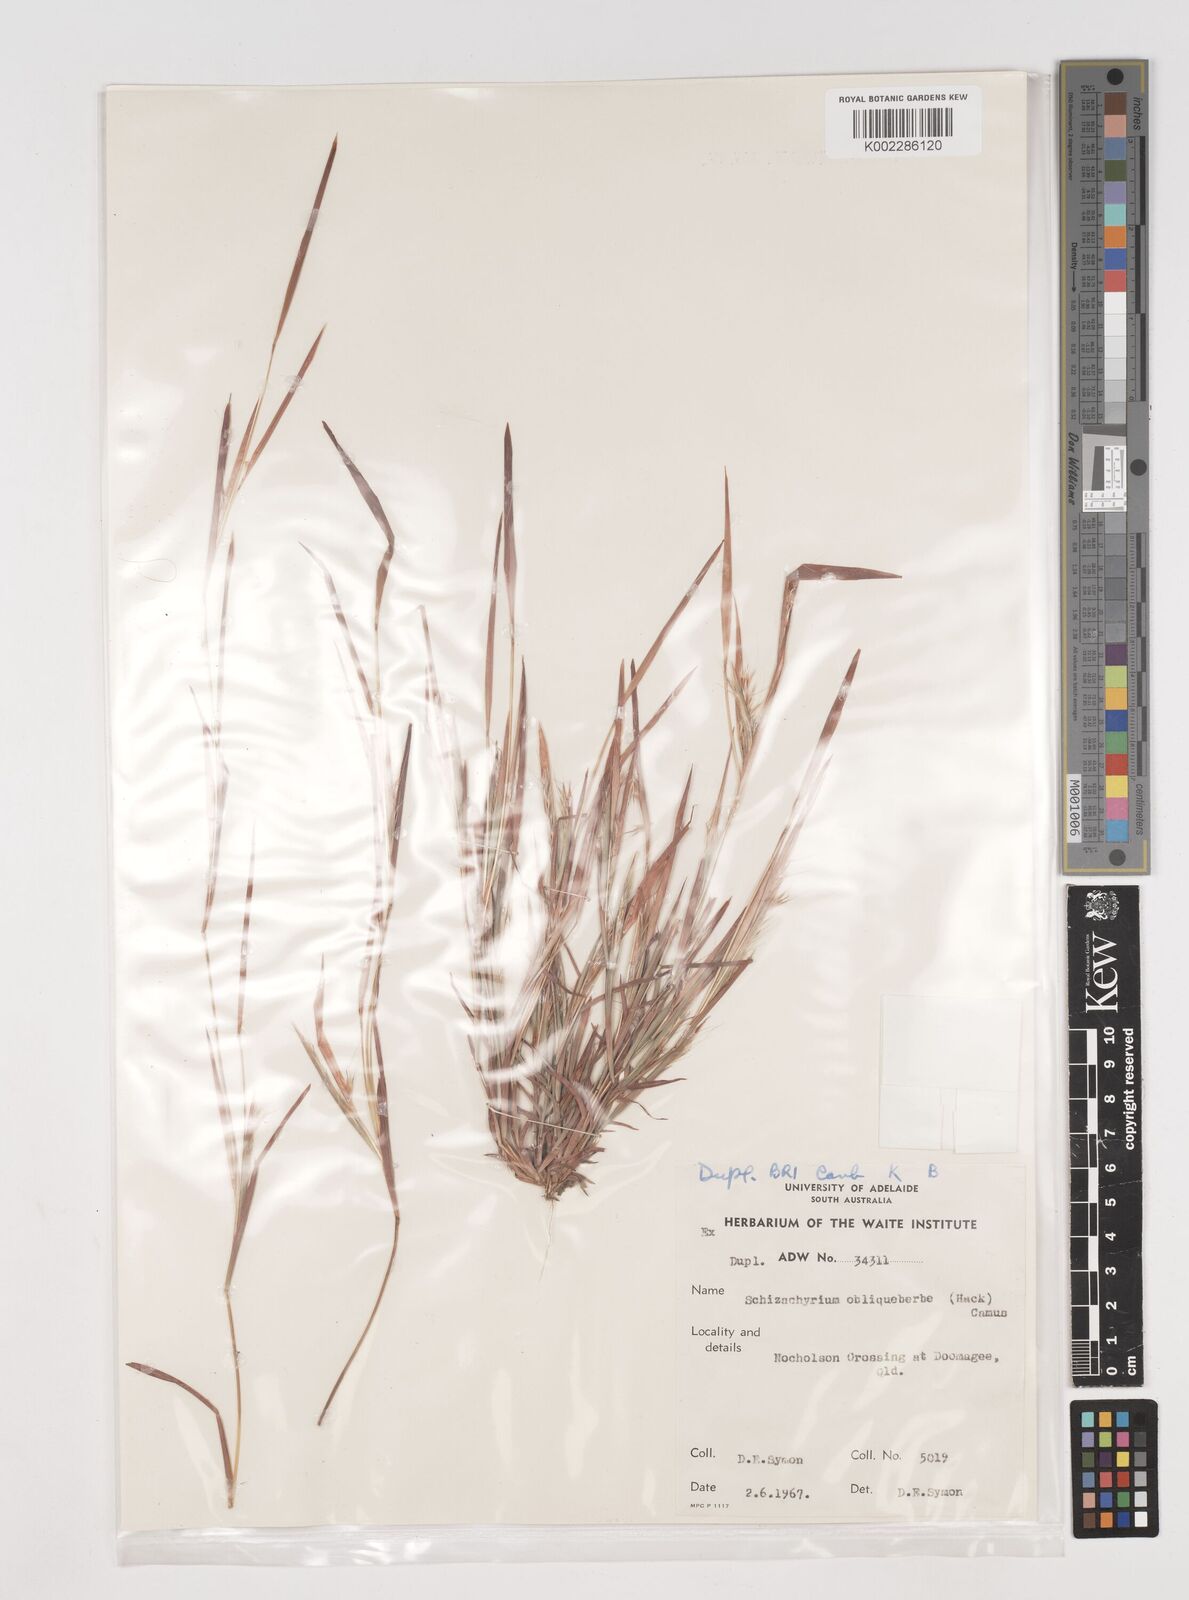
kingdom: Plantae
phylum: Tracheophyta
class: Liliopsida
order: Poales
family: Poaceae
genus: Schizachyrium
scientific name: Schizachyrium fragile
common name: Red spathe grass
